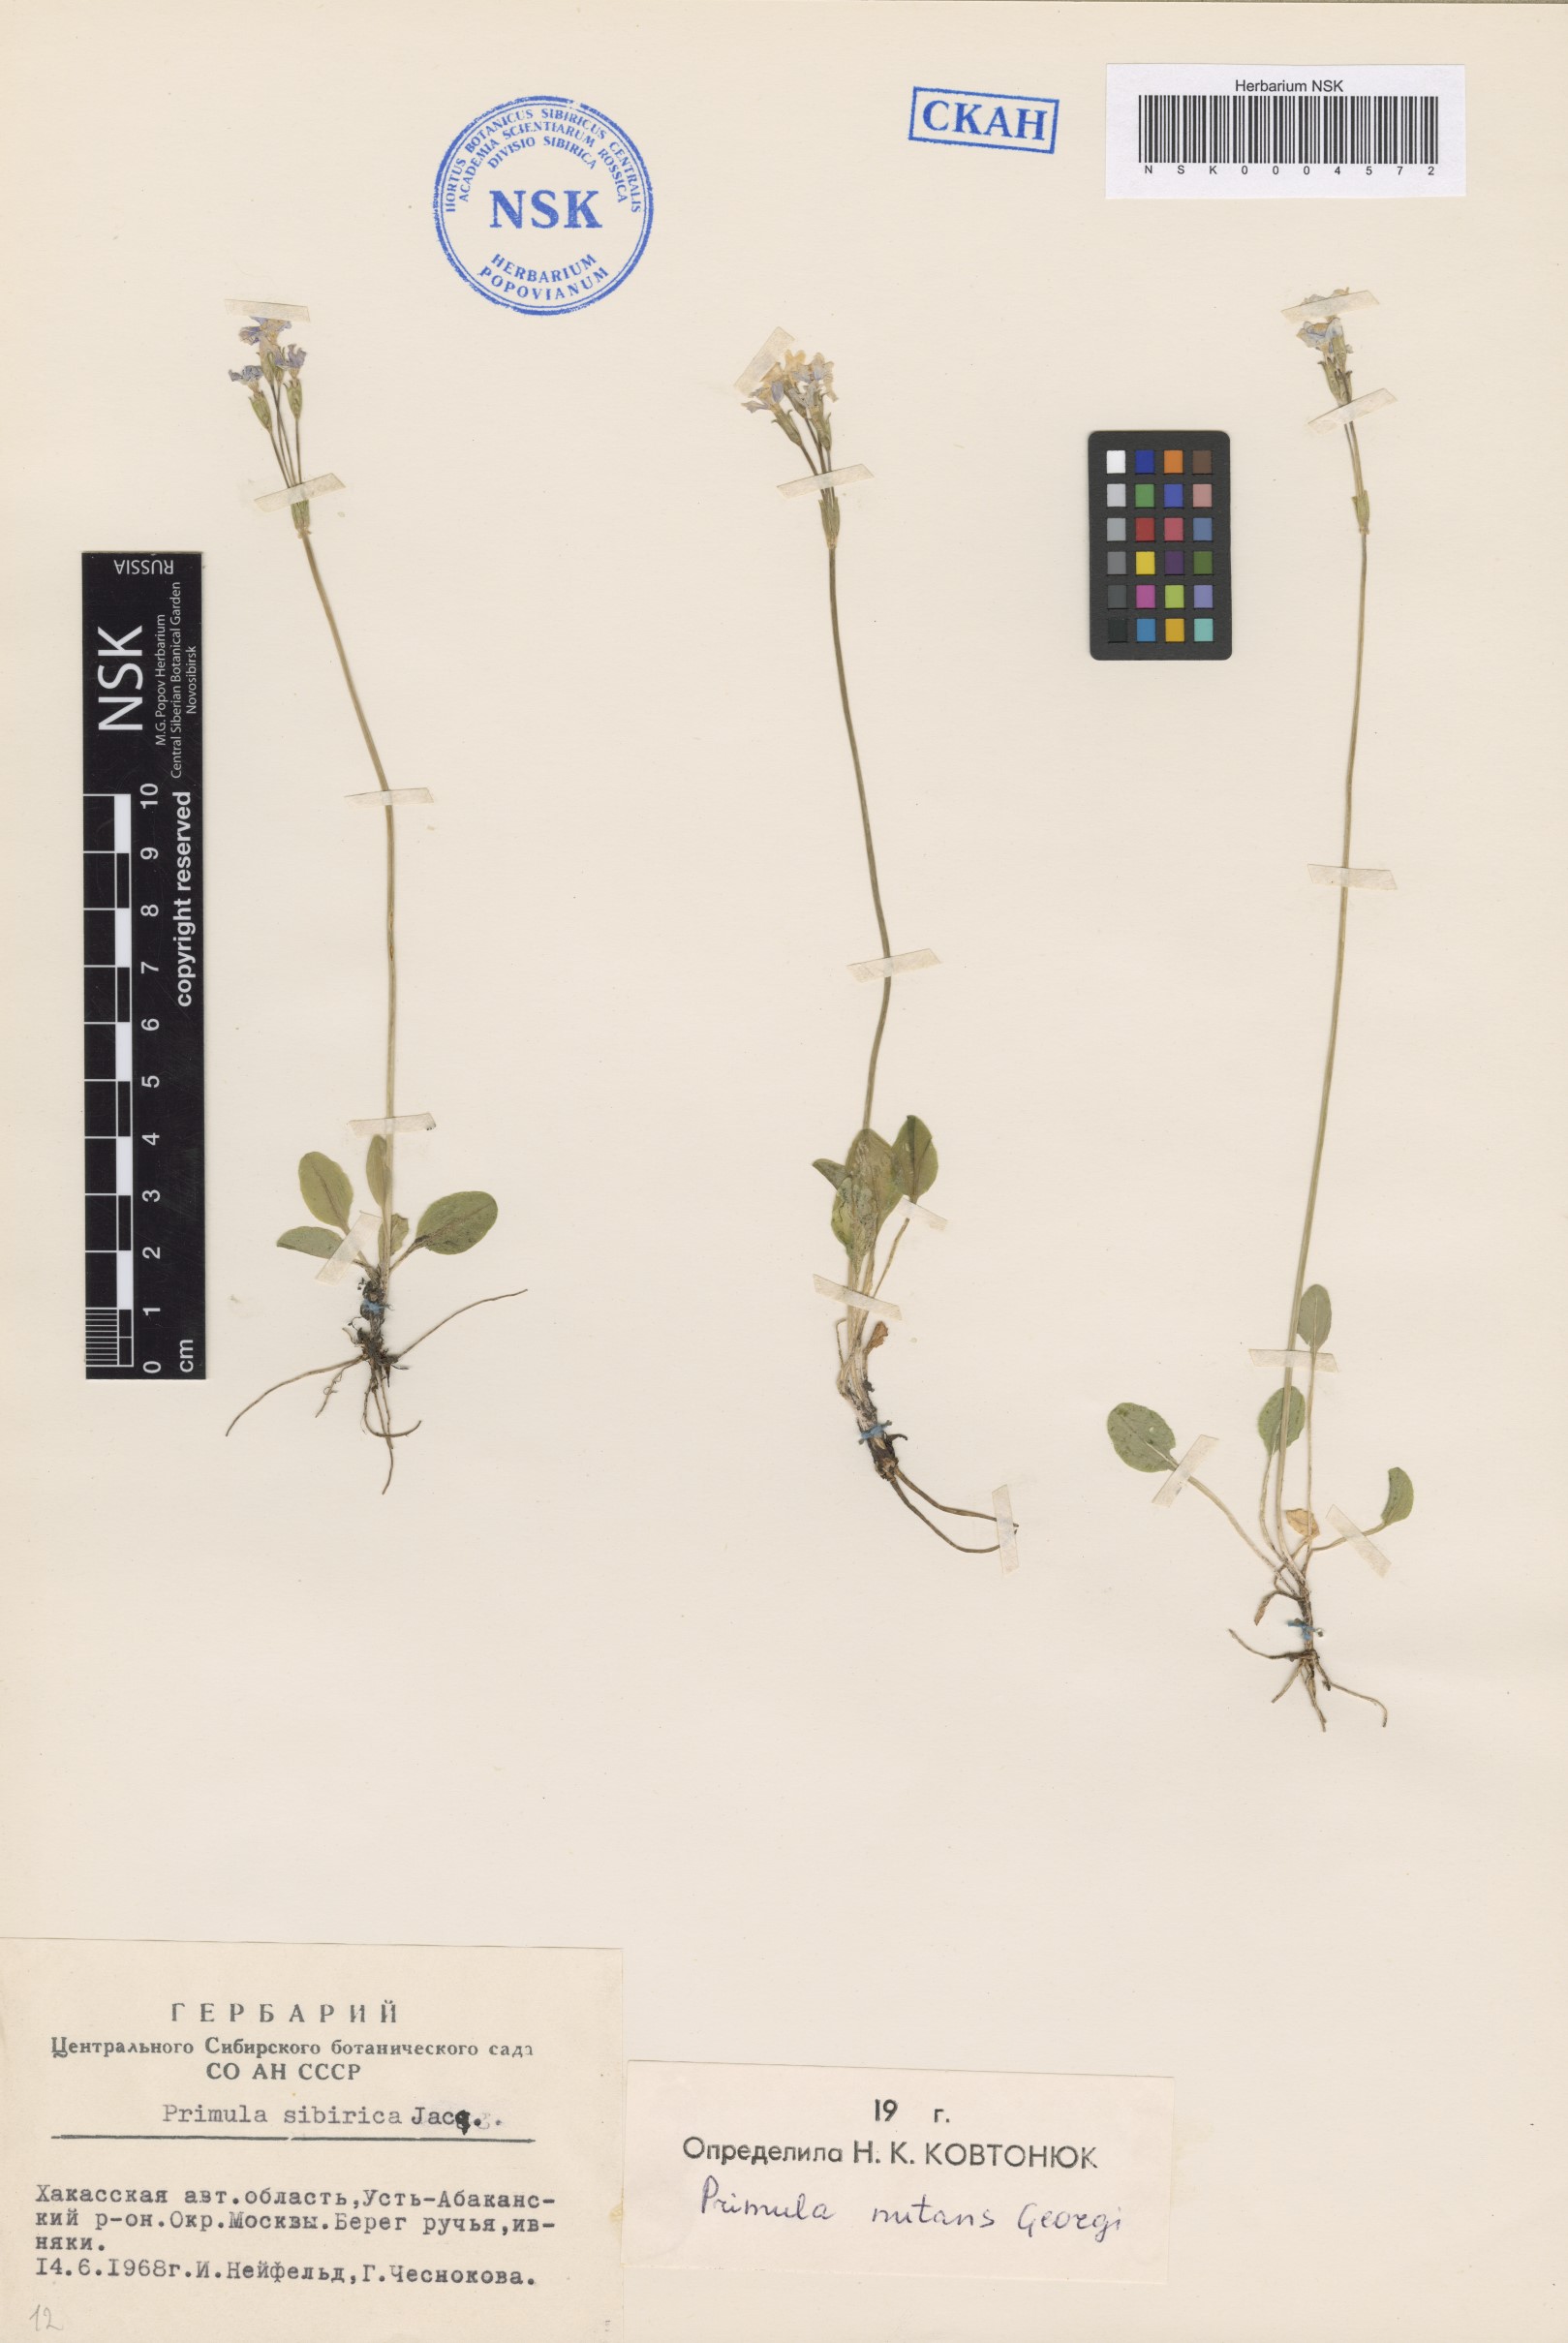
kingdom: Plantae
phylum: Tracheophyta
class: Magnoliopsida
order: Ericales
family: Primulaceae
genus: Primula
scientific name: Primula nutans
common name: Siberian primrose
